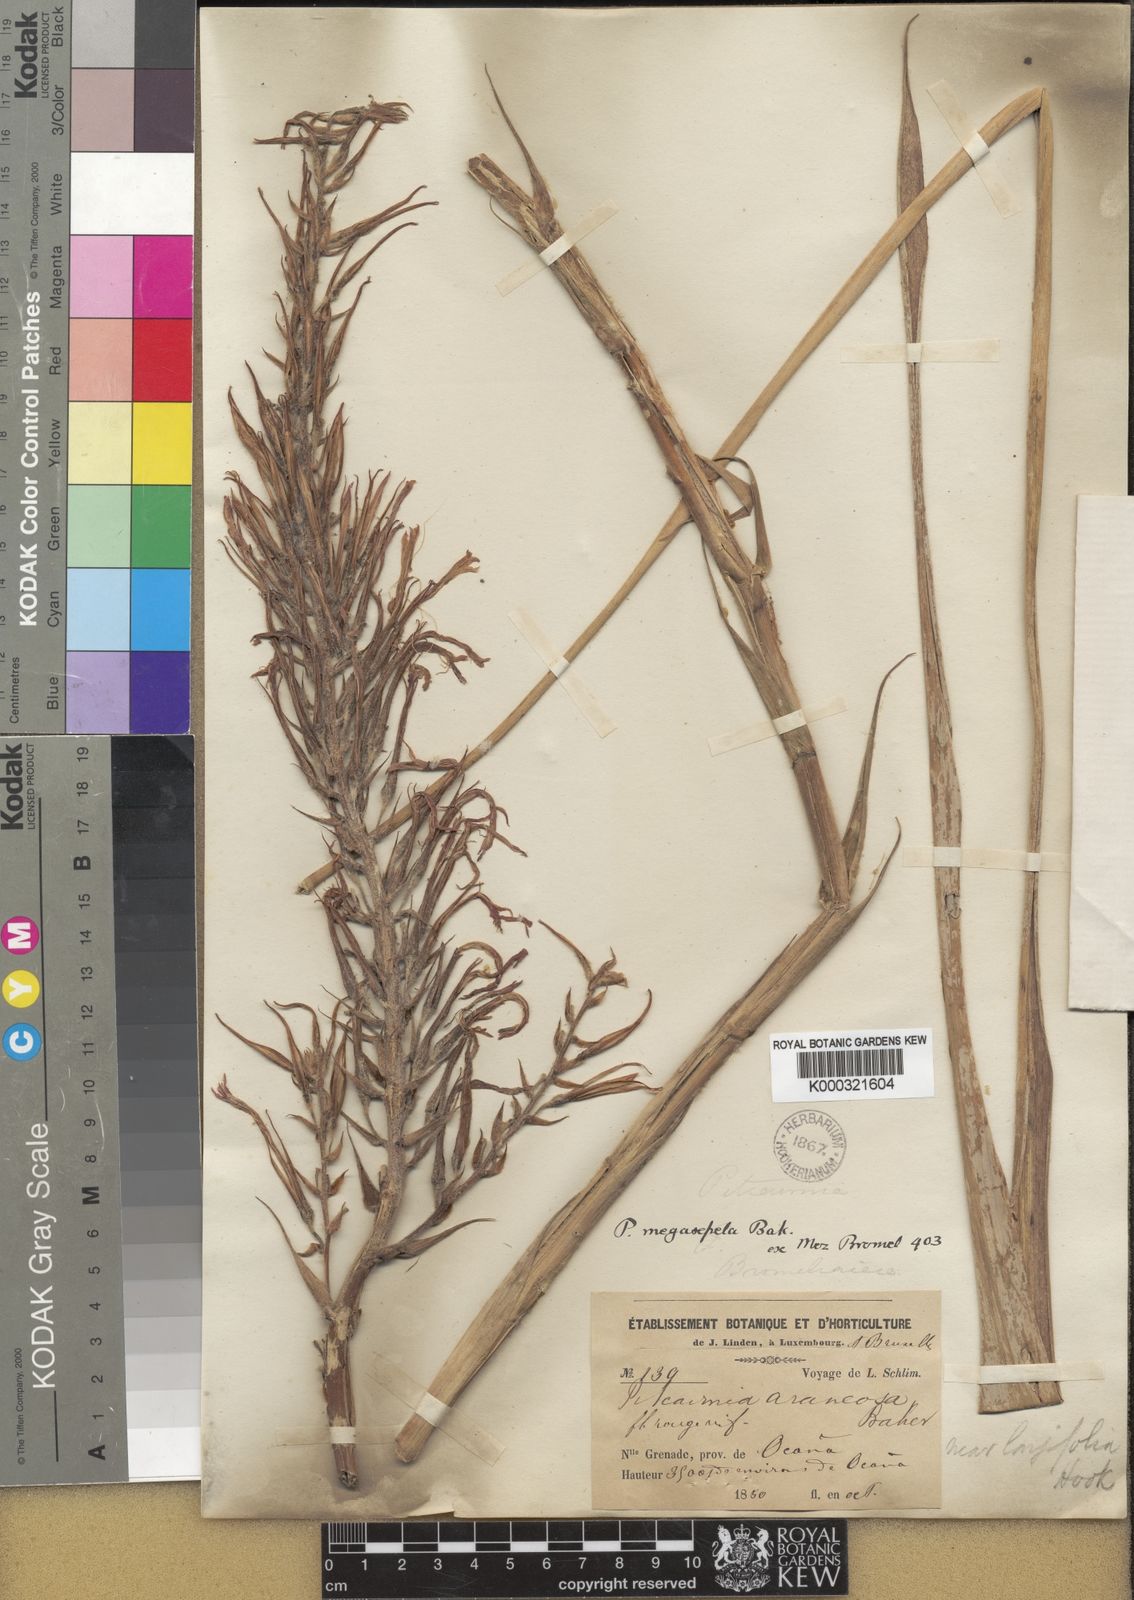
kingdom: Plantae
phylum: Tracheophyta
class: Liliopsida
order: Poales
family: Bromeliaceae
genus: Pitcairnia
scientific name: Pitcairnia megasepala
